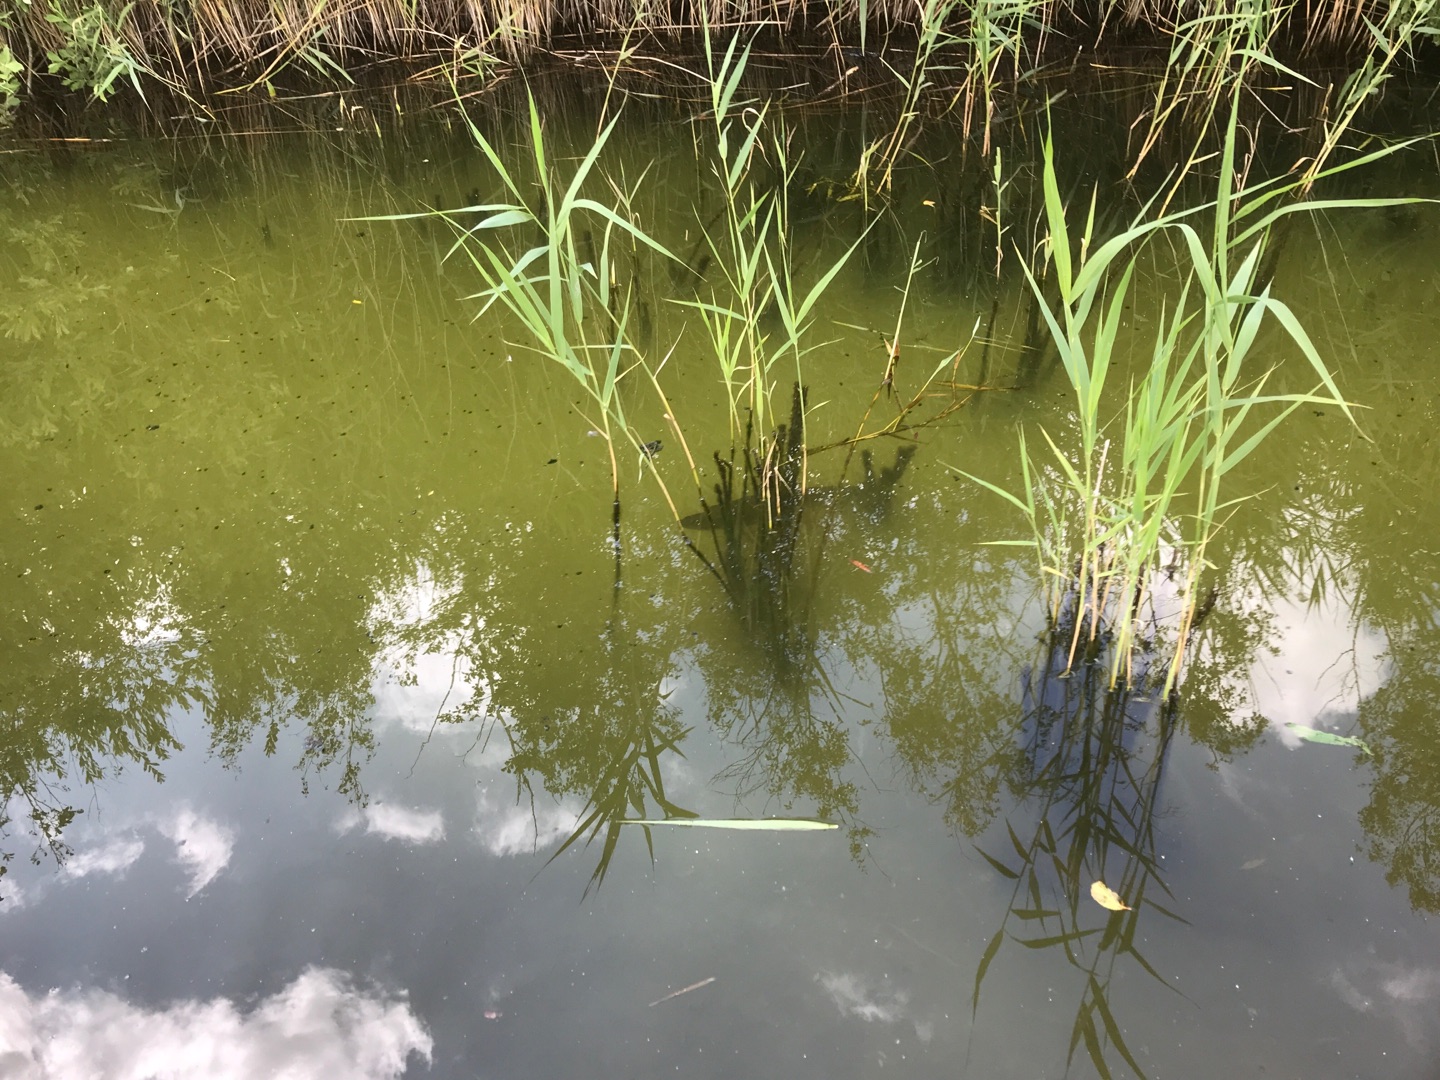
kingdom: Animalia
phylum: Chordata
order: Esociformes
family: Esocidae
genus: Esox
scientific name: Esox lucius
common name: Gedde
